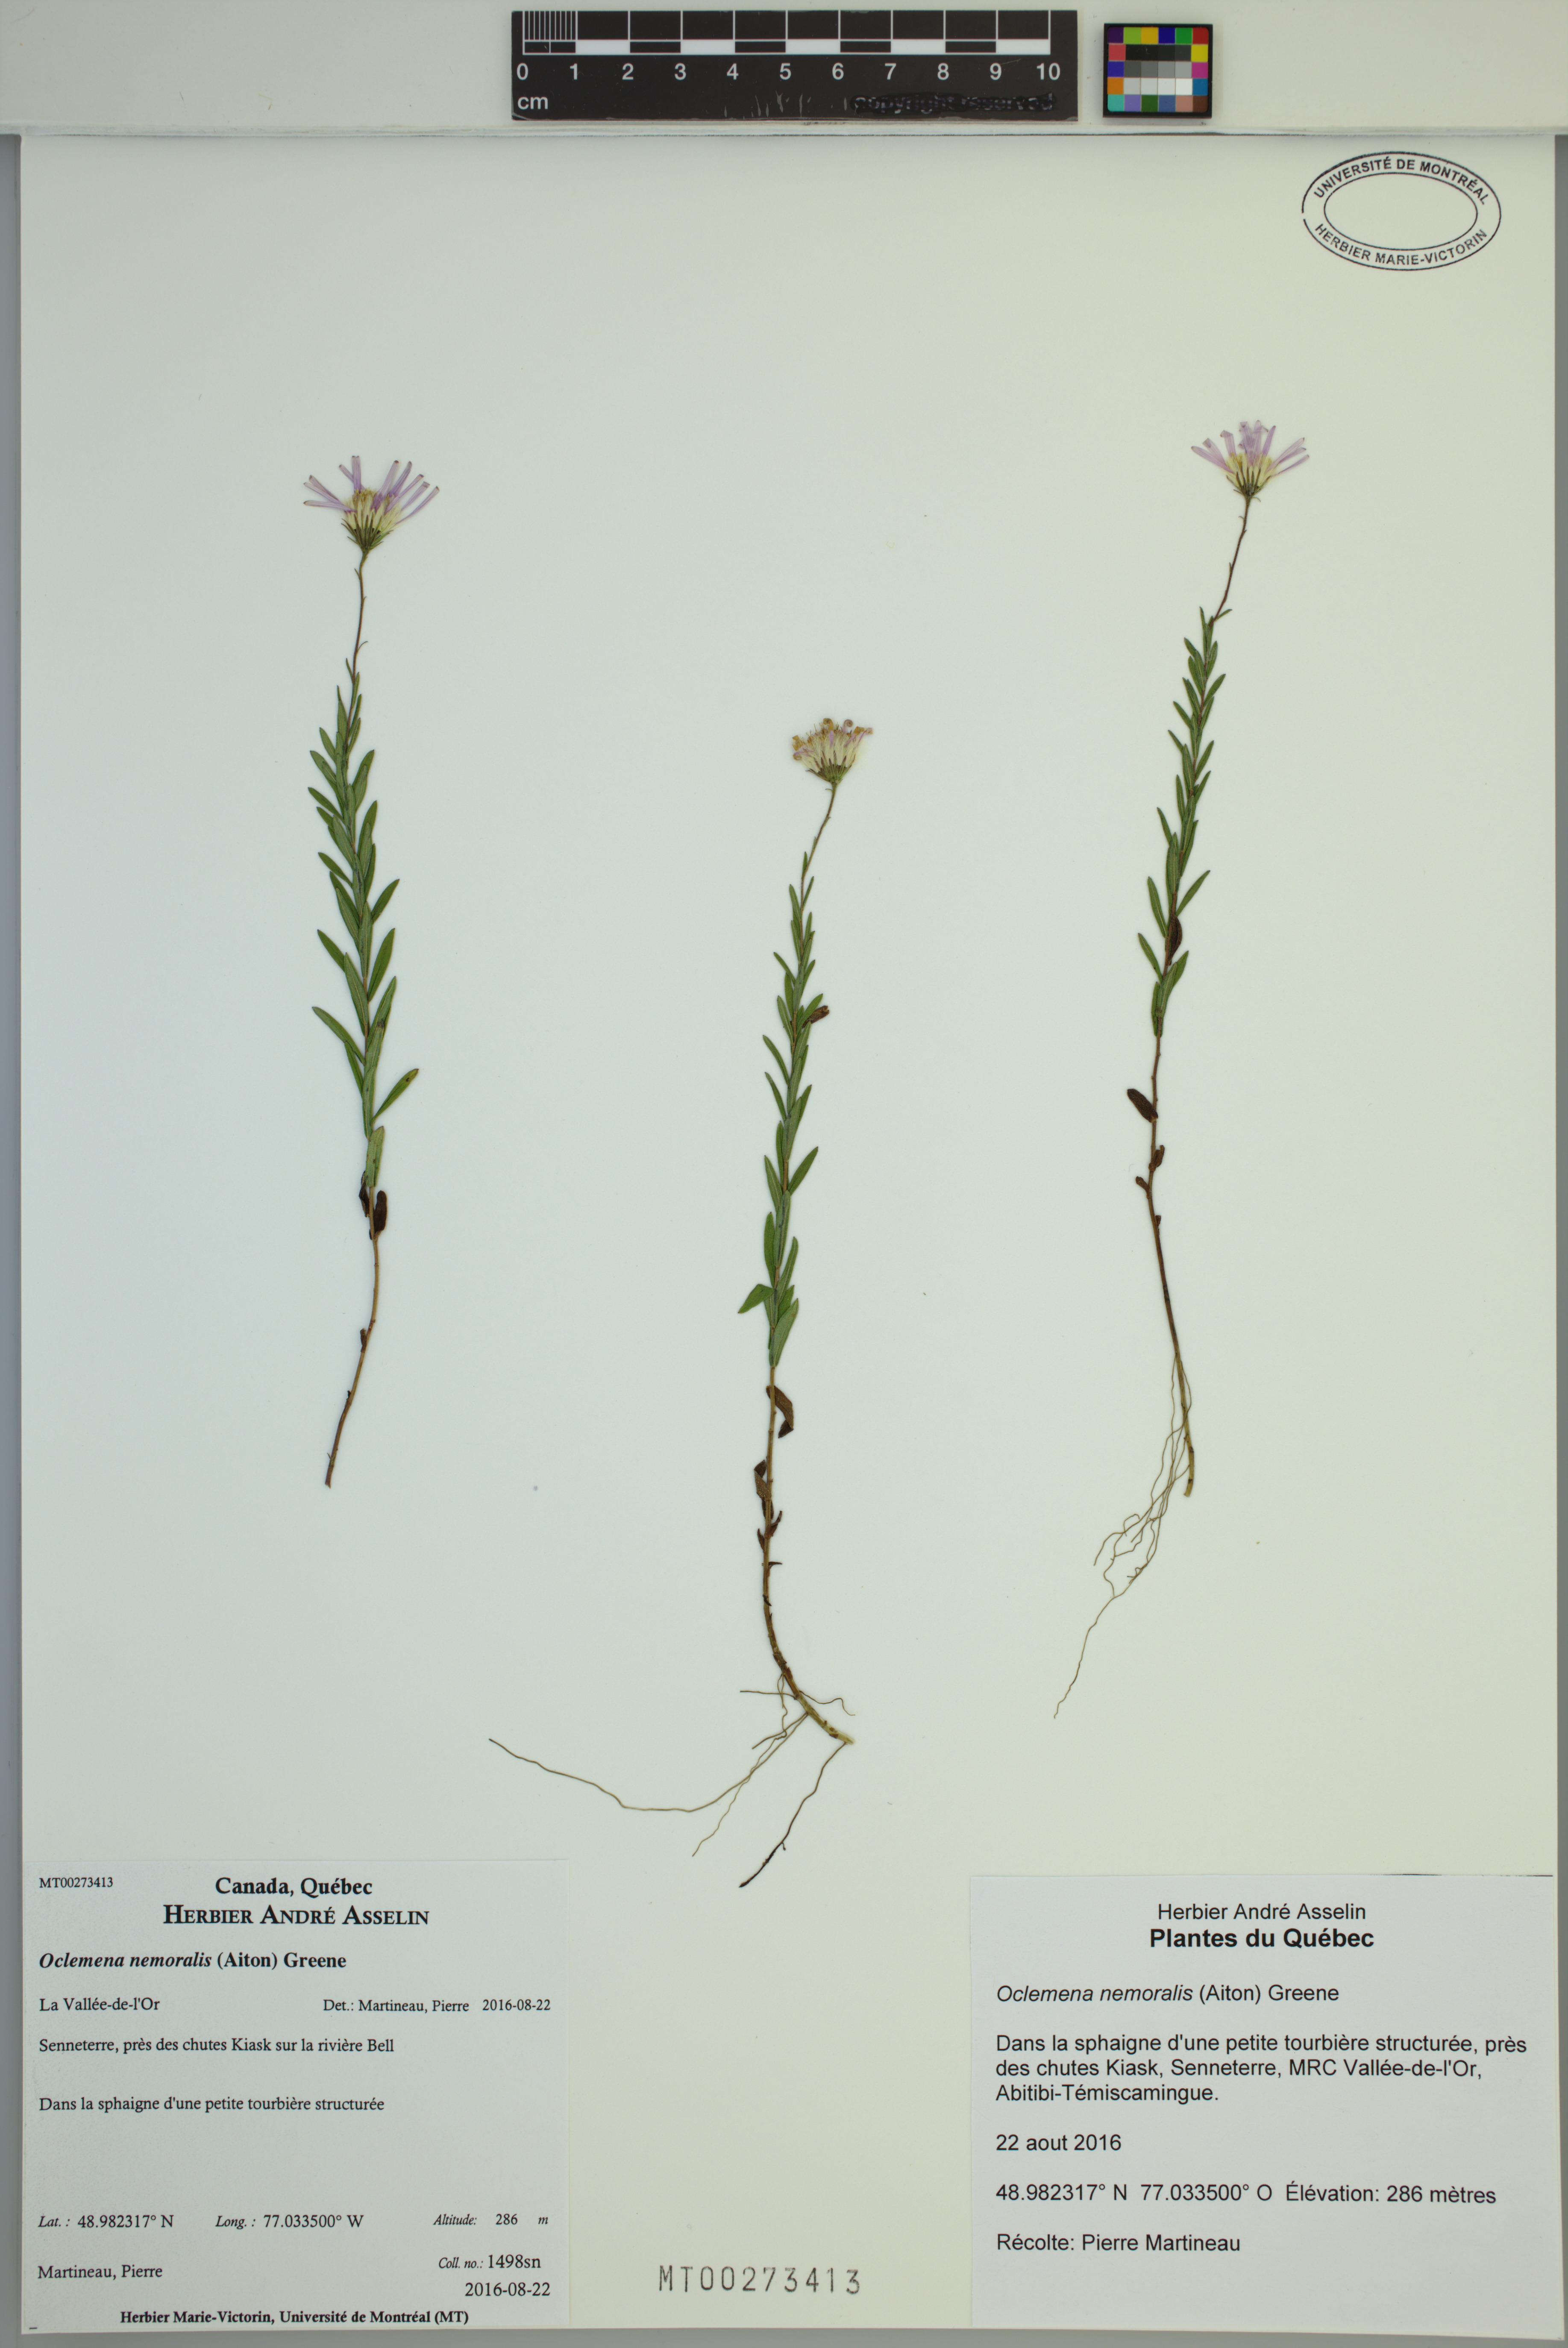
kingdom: Plantae
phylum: Tracheophyta
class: Magnoliopsida
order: Asterales
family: Asteraceae
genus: Oclemena
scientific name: Oclemena nemoralis
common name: Bog aster
